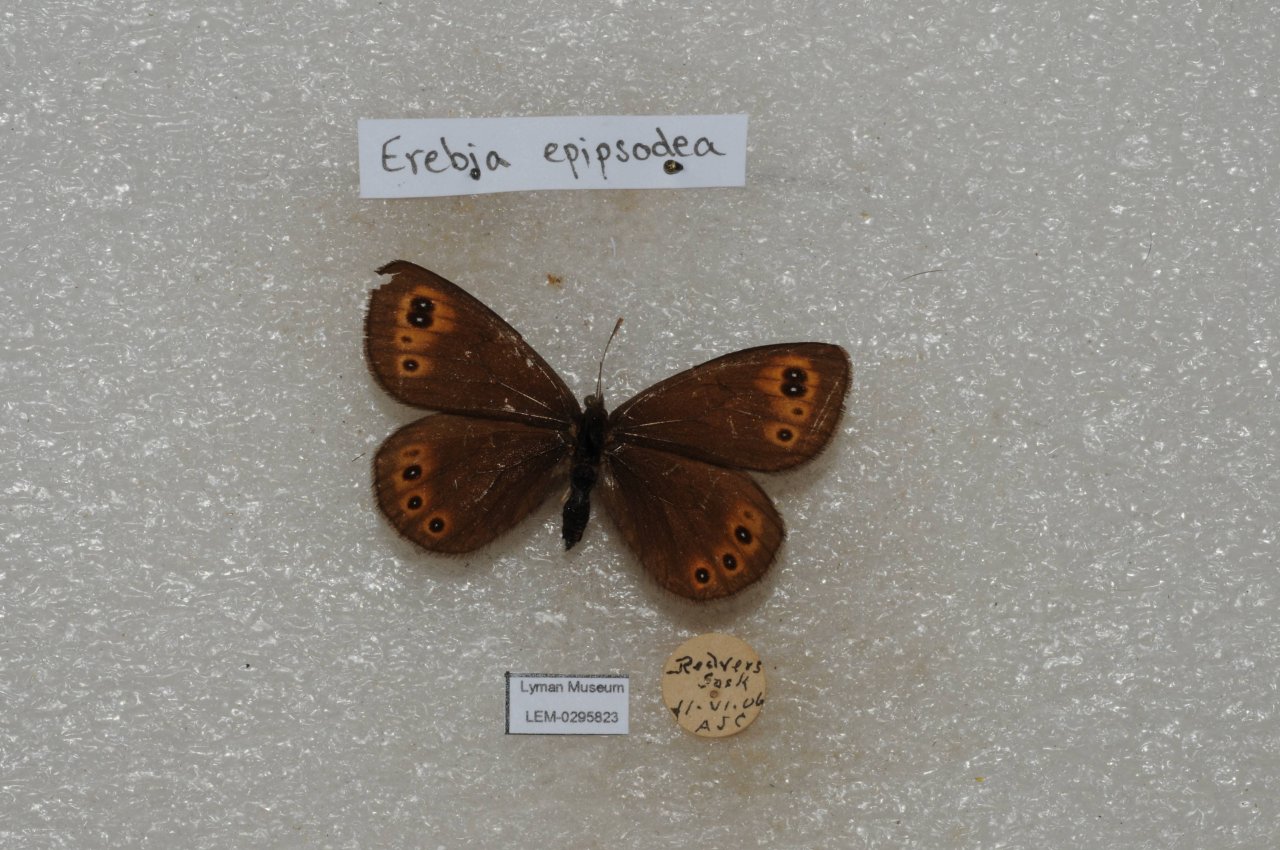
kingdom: Animalia
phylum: Arthropoda
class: Insecta
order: Lepidoptera
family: Nymphalidae
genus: Erebia
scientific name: Erebia epipsodea
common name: Common Alpine
